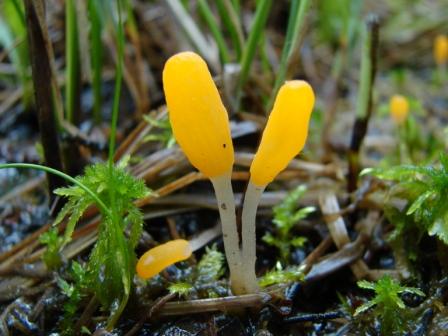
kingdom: Fungi
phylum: Ascomycota
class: Leotiomycetes
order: Helotiales
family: Cenangiaceae
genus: Mitrula
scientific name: Mitrula paludosa
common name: gul nøkketunge
